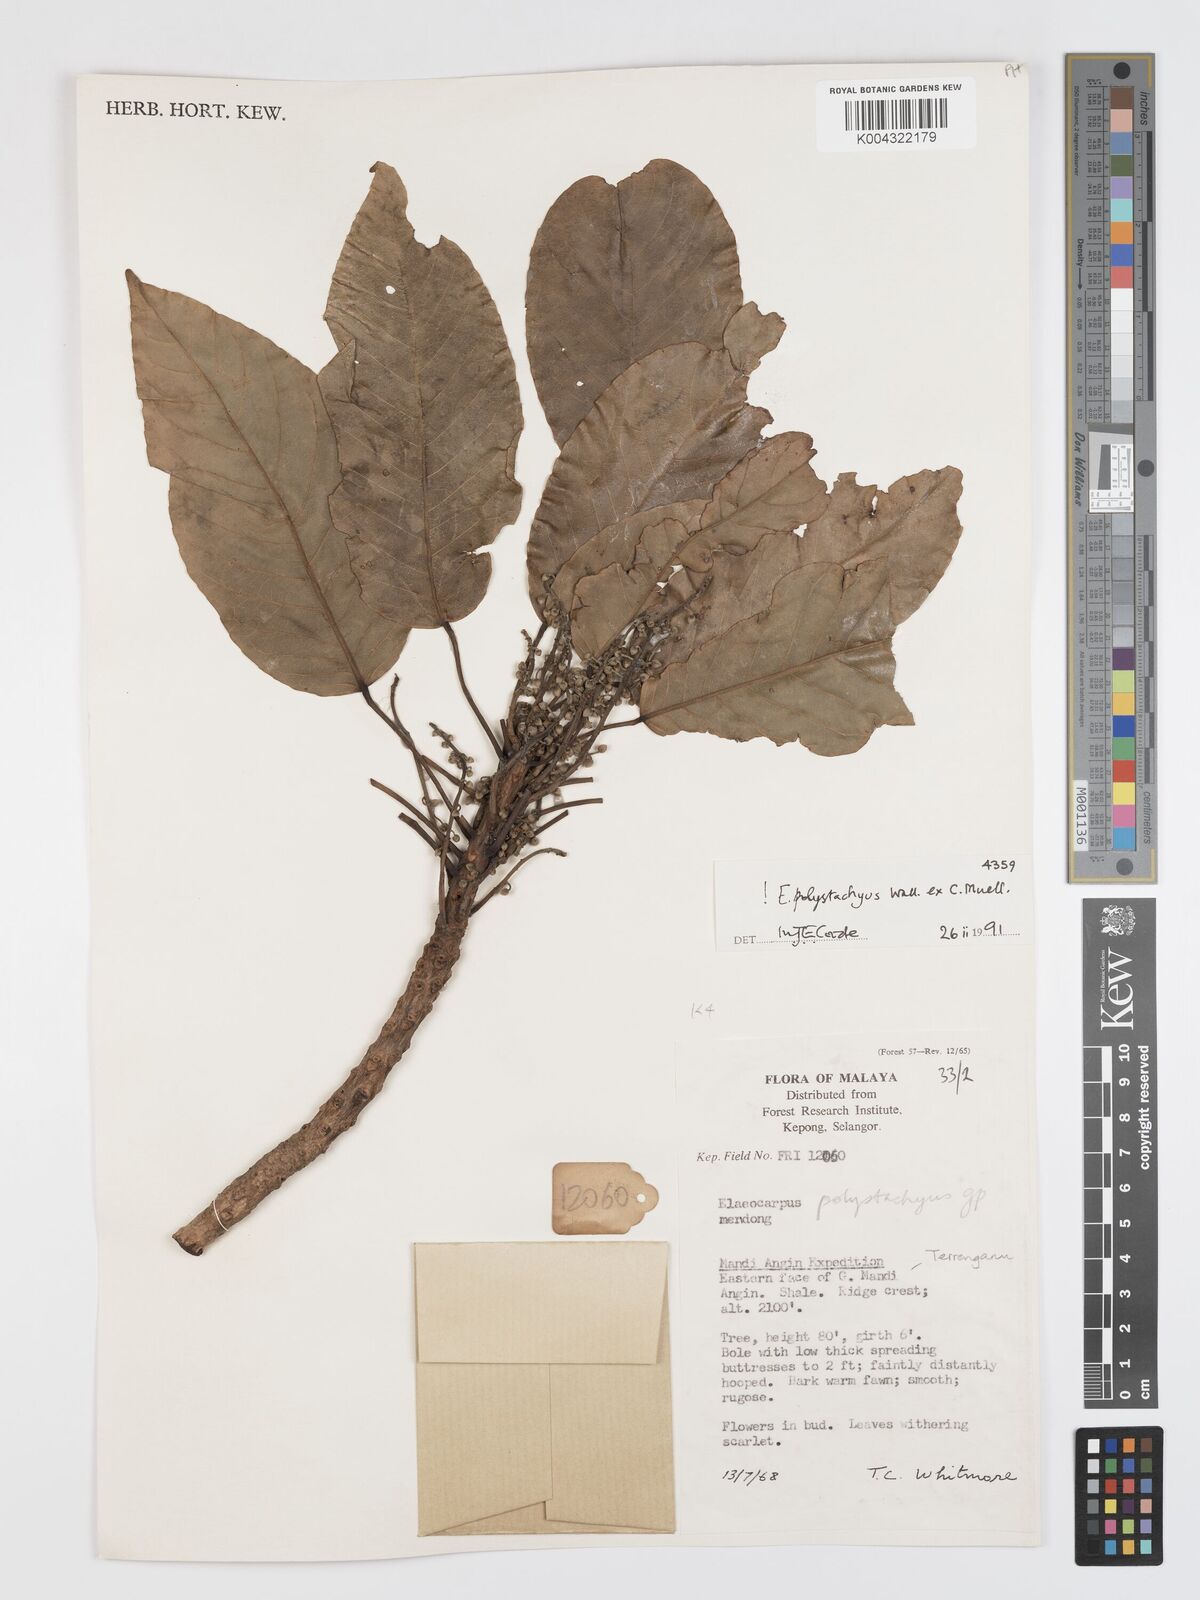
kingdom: Plantae
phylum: Tracheophyta
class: Magnoliopsida
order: Oxalidales
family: Elaeocarpaceae
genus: Elaeocarpus
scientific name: Elaeocarpus polystachyus
